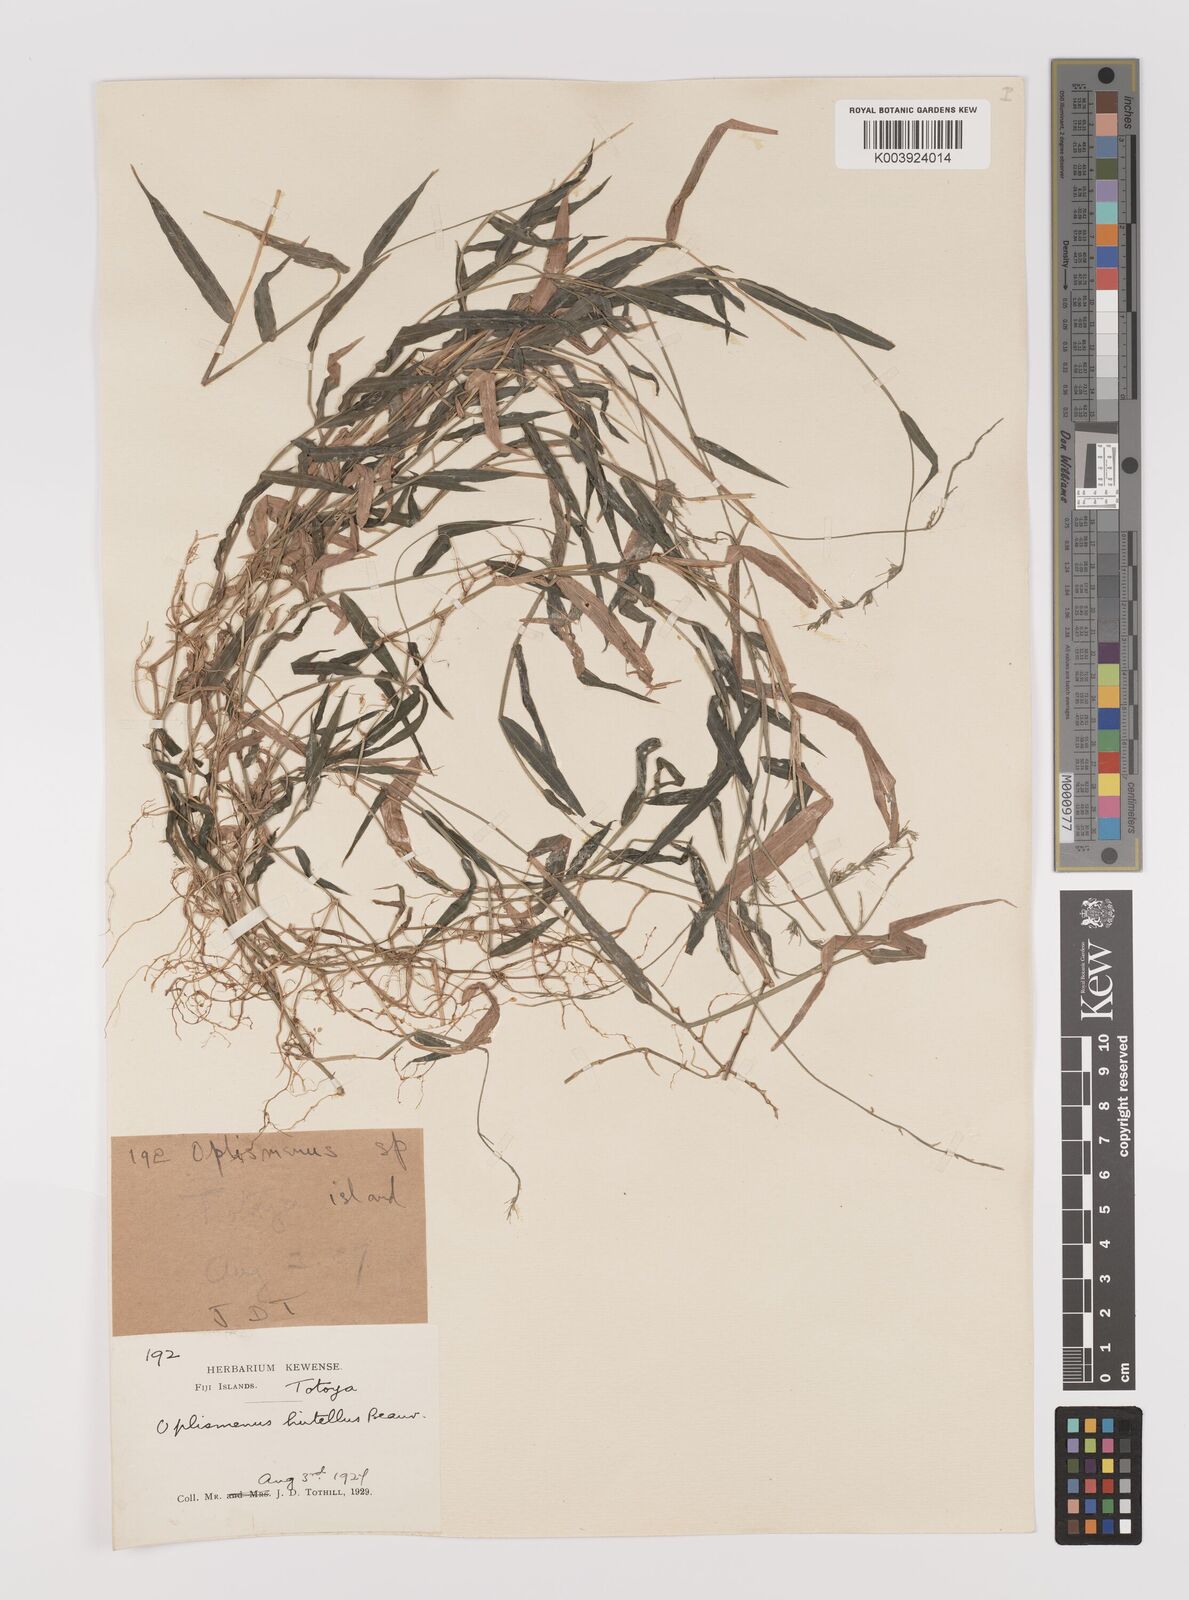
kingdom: Plantae
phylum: Tracheophyta
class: Liliopsida
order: Poales
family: Poaceae
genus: Oplismenus
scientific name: Oplismenus hirtellus
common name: Basketgrass
